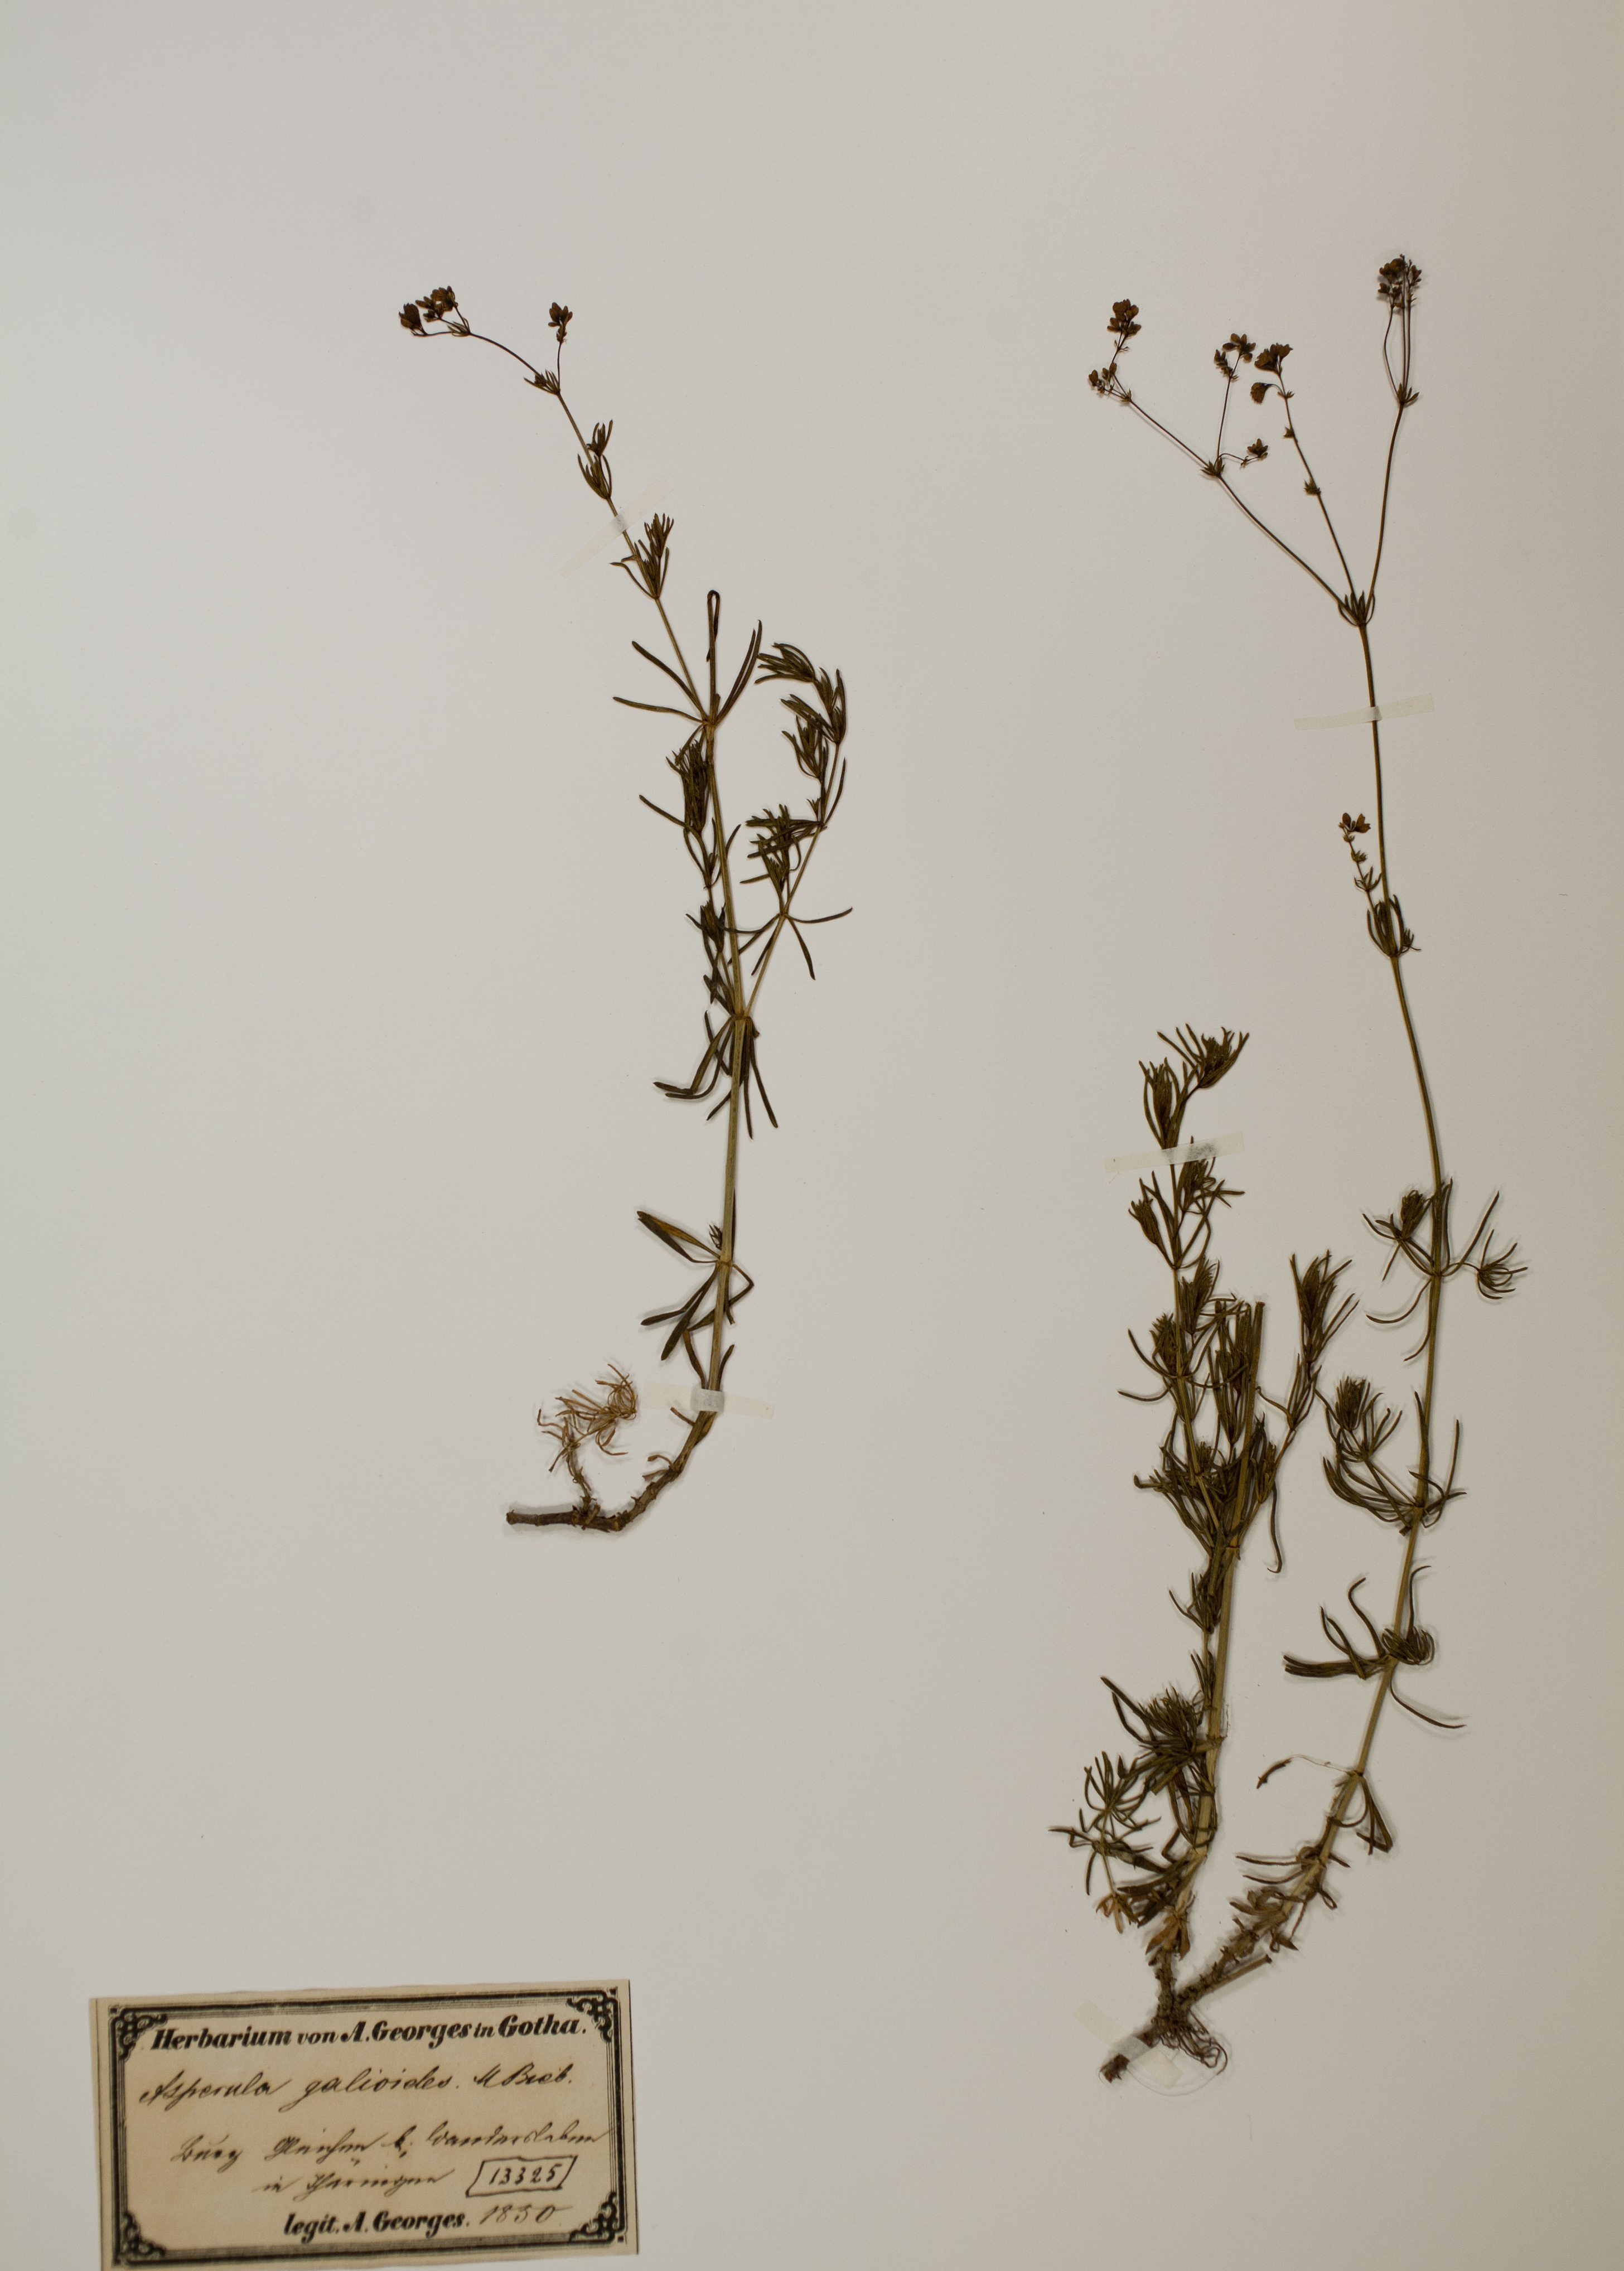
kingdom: Plantae
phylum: Tracheophyta
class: Magnoliopsida
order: Gentianales
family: Rubiaceae
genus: Galium
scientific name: Galium glaucum
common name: Waxy bedstraw
